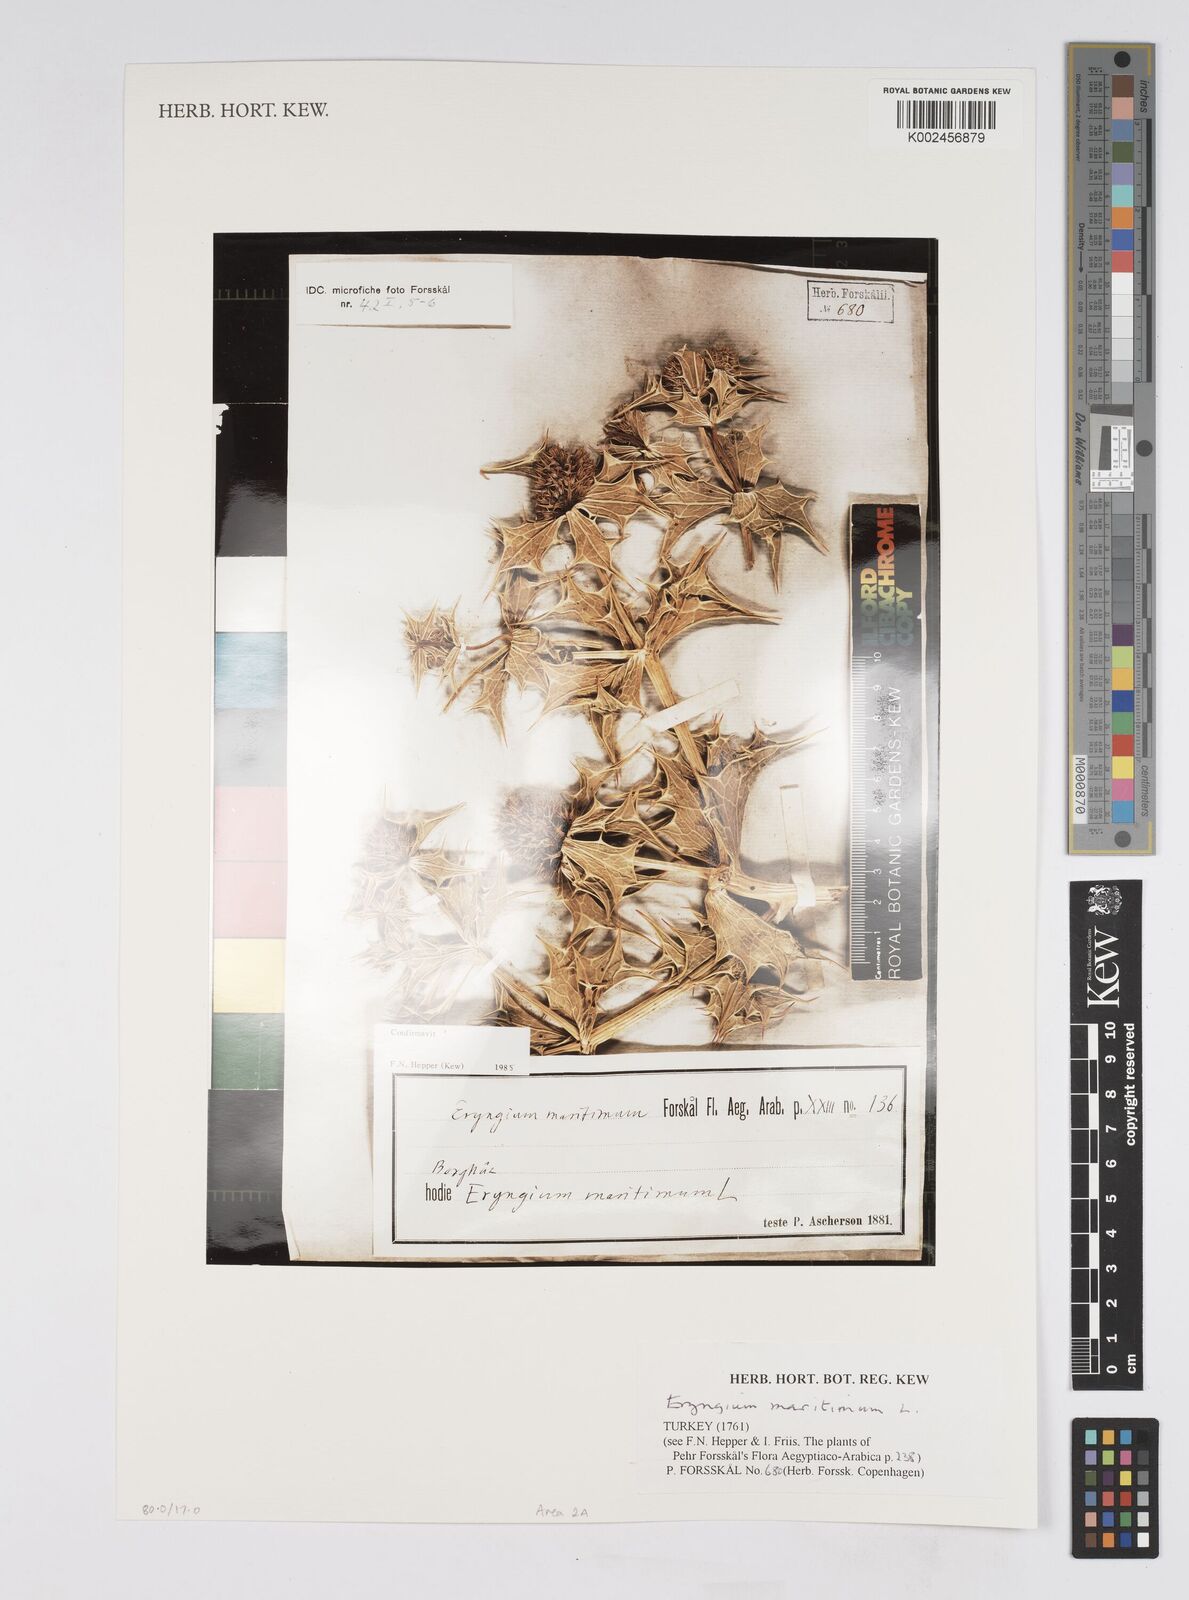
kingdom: Plantae
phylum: Tracheophyta
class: Magnoliopsida
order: Apiales
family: Apiaceae
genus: Eryngium
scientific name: Eryngium maritimum
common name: Sea-holly
